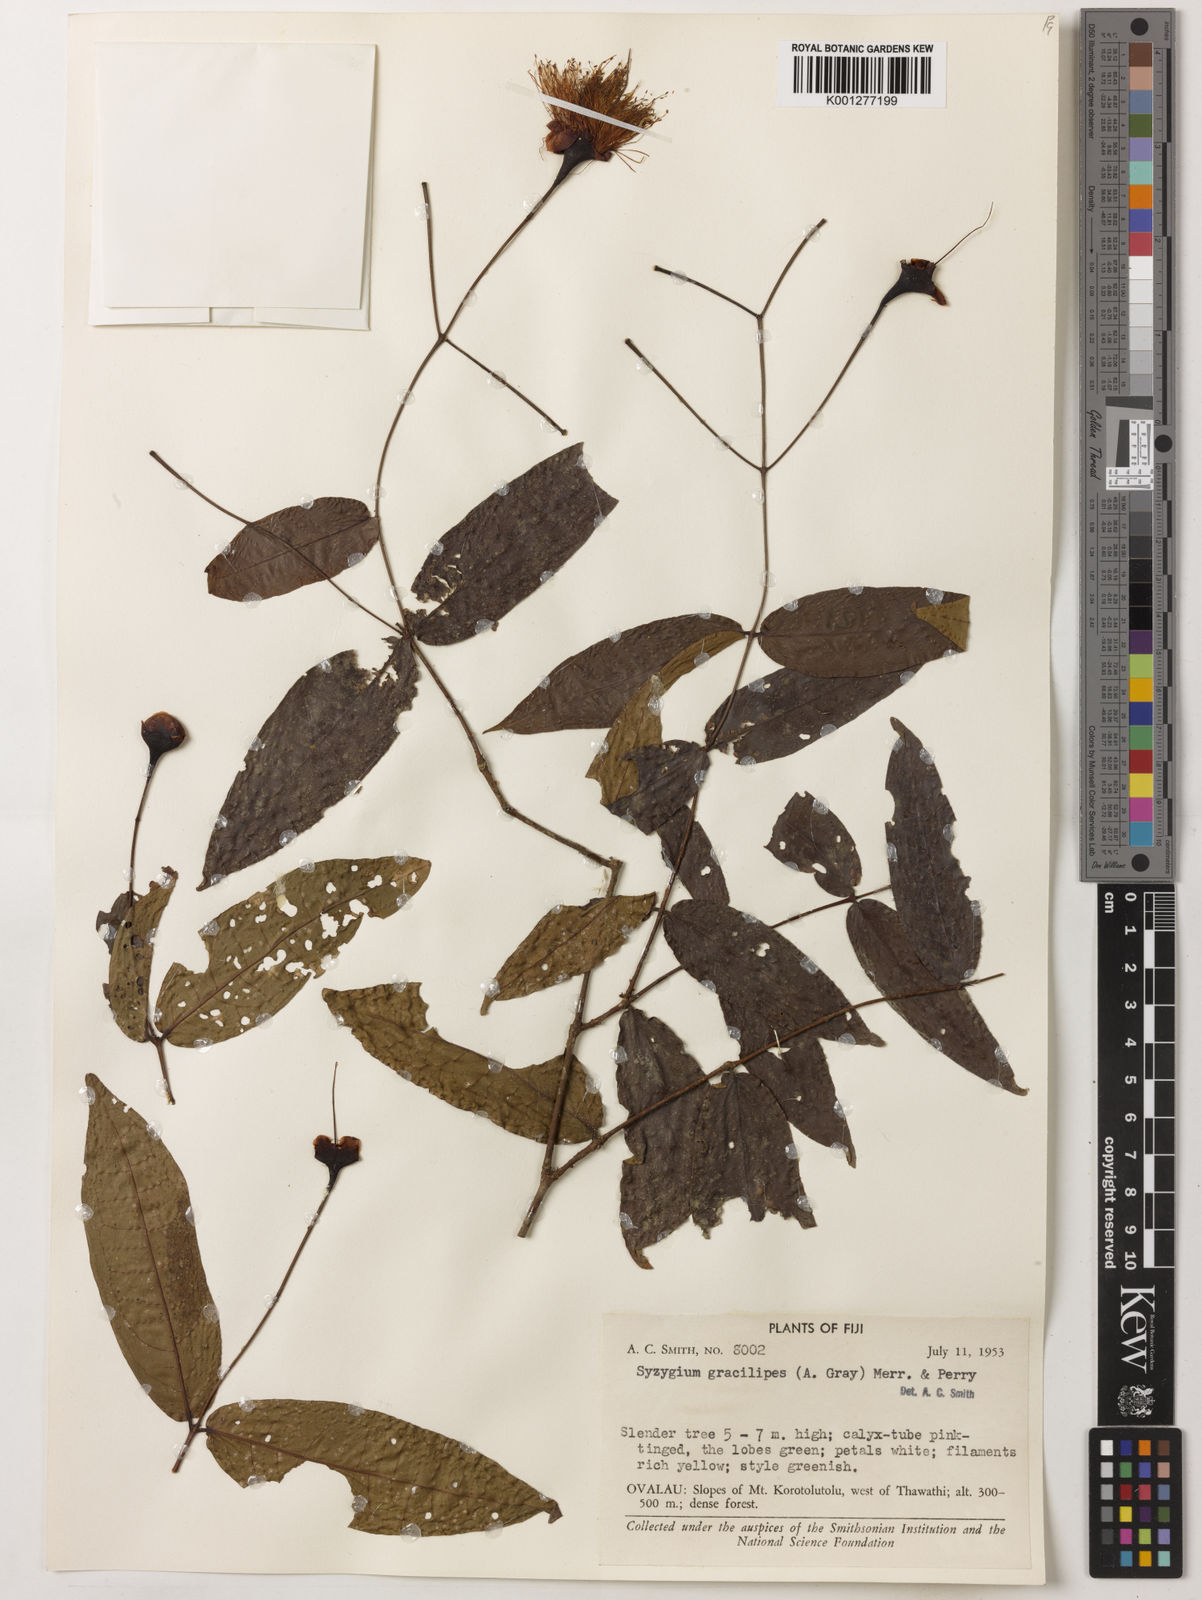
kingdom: Plantae
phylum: Tracheophyta
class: Magnoliopsida
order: Myrtales
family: Myrtaceae
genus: Syzygium
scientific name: Syzygium gracilipes
